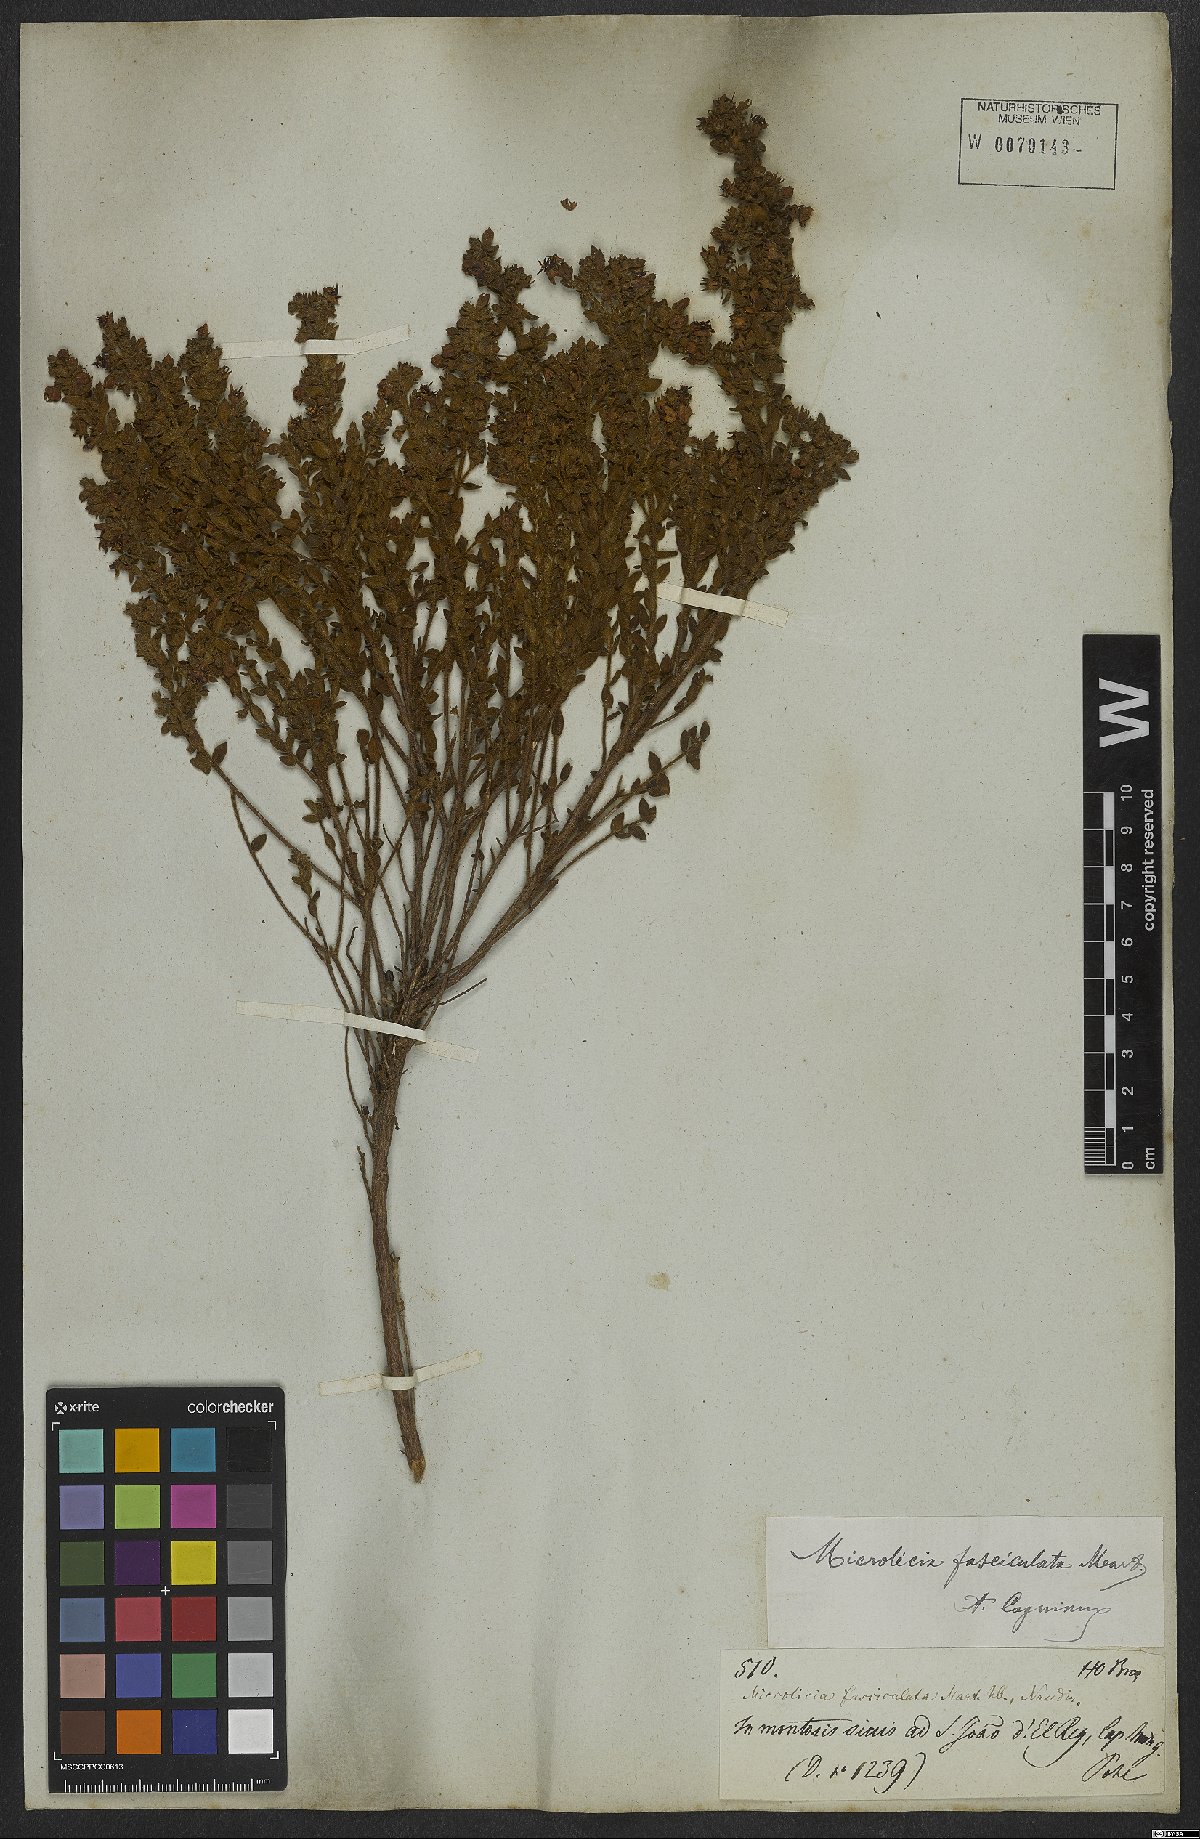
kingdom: Plantae
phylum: Tracheophyta
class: Magnoliopsida
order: Myrtales
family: Melastomataceae
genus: Microlicia
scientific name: Microlicia fasciculata
